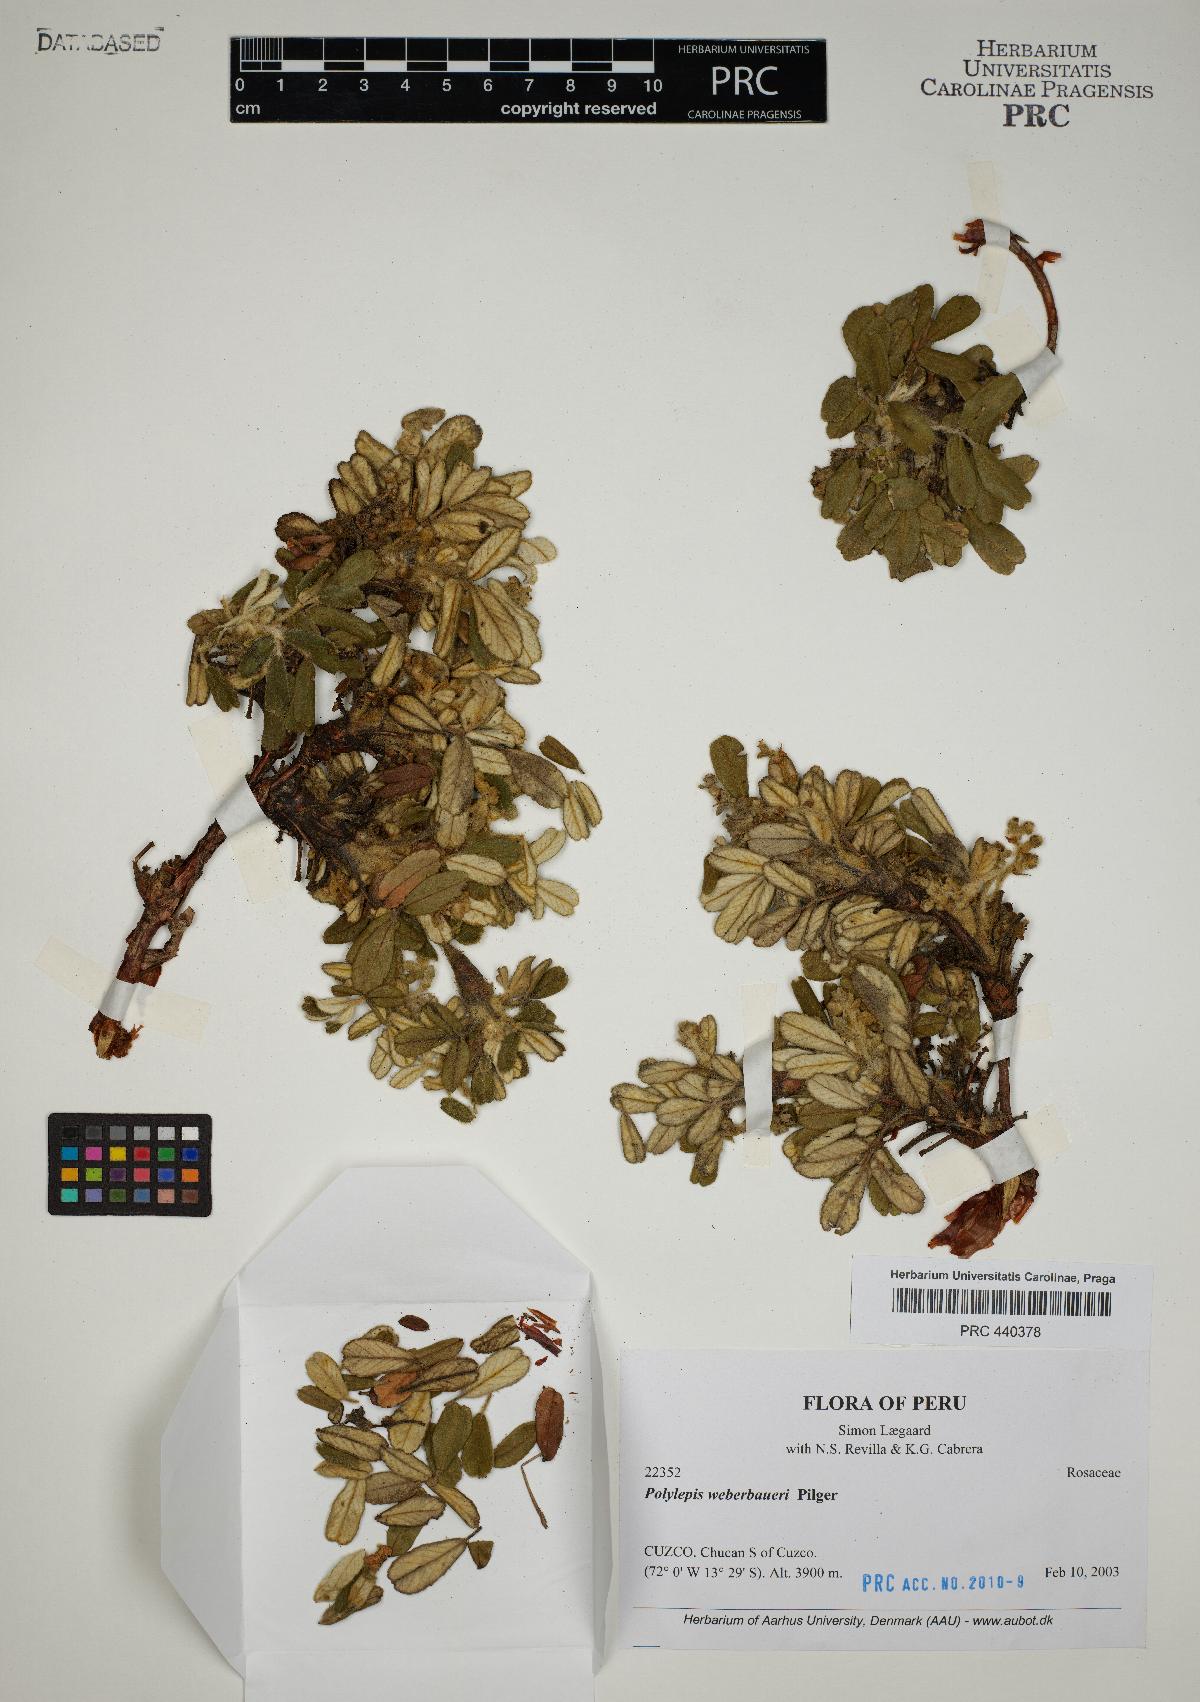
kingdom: Plantae
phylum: Tracheophyta
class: Magnoliopsida
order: Rosales
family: Rosaceae
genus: Polylepis
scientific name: Polylepis microphylla
